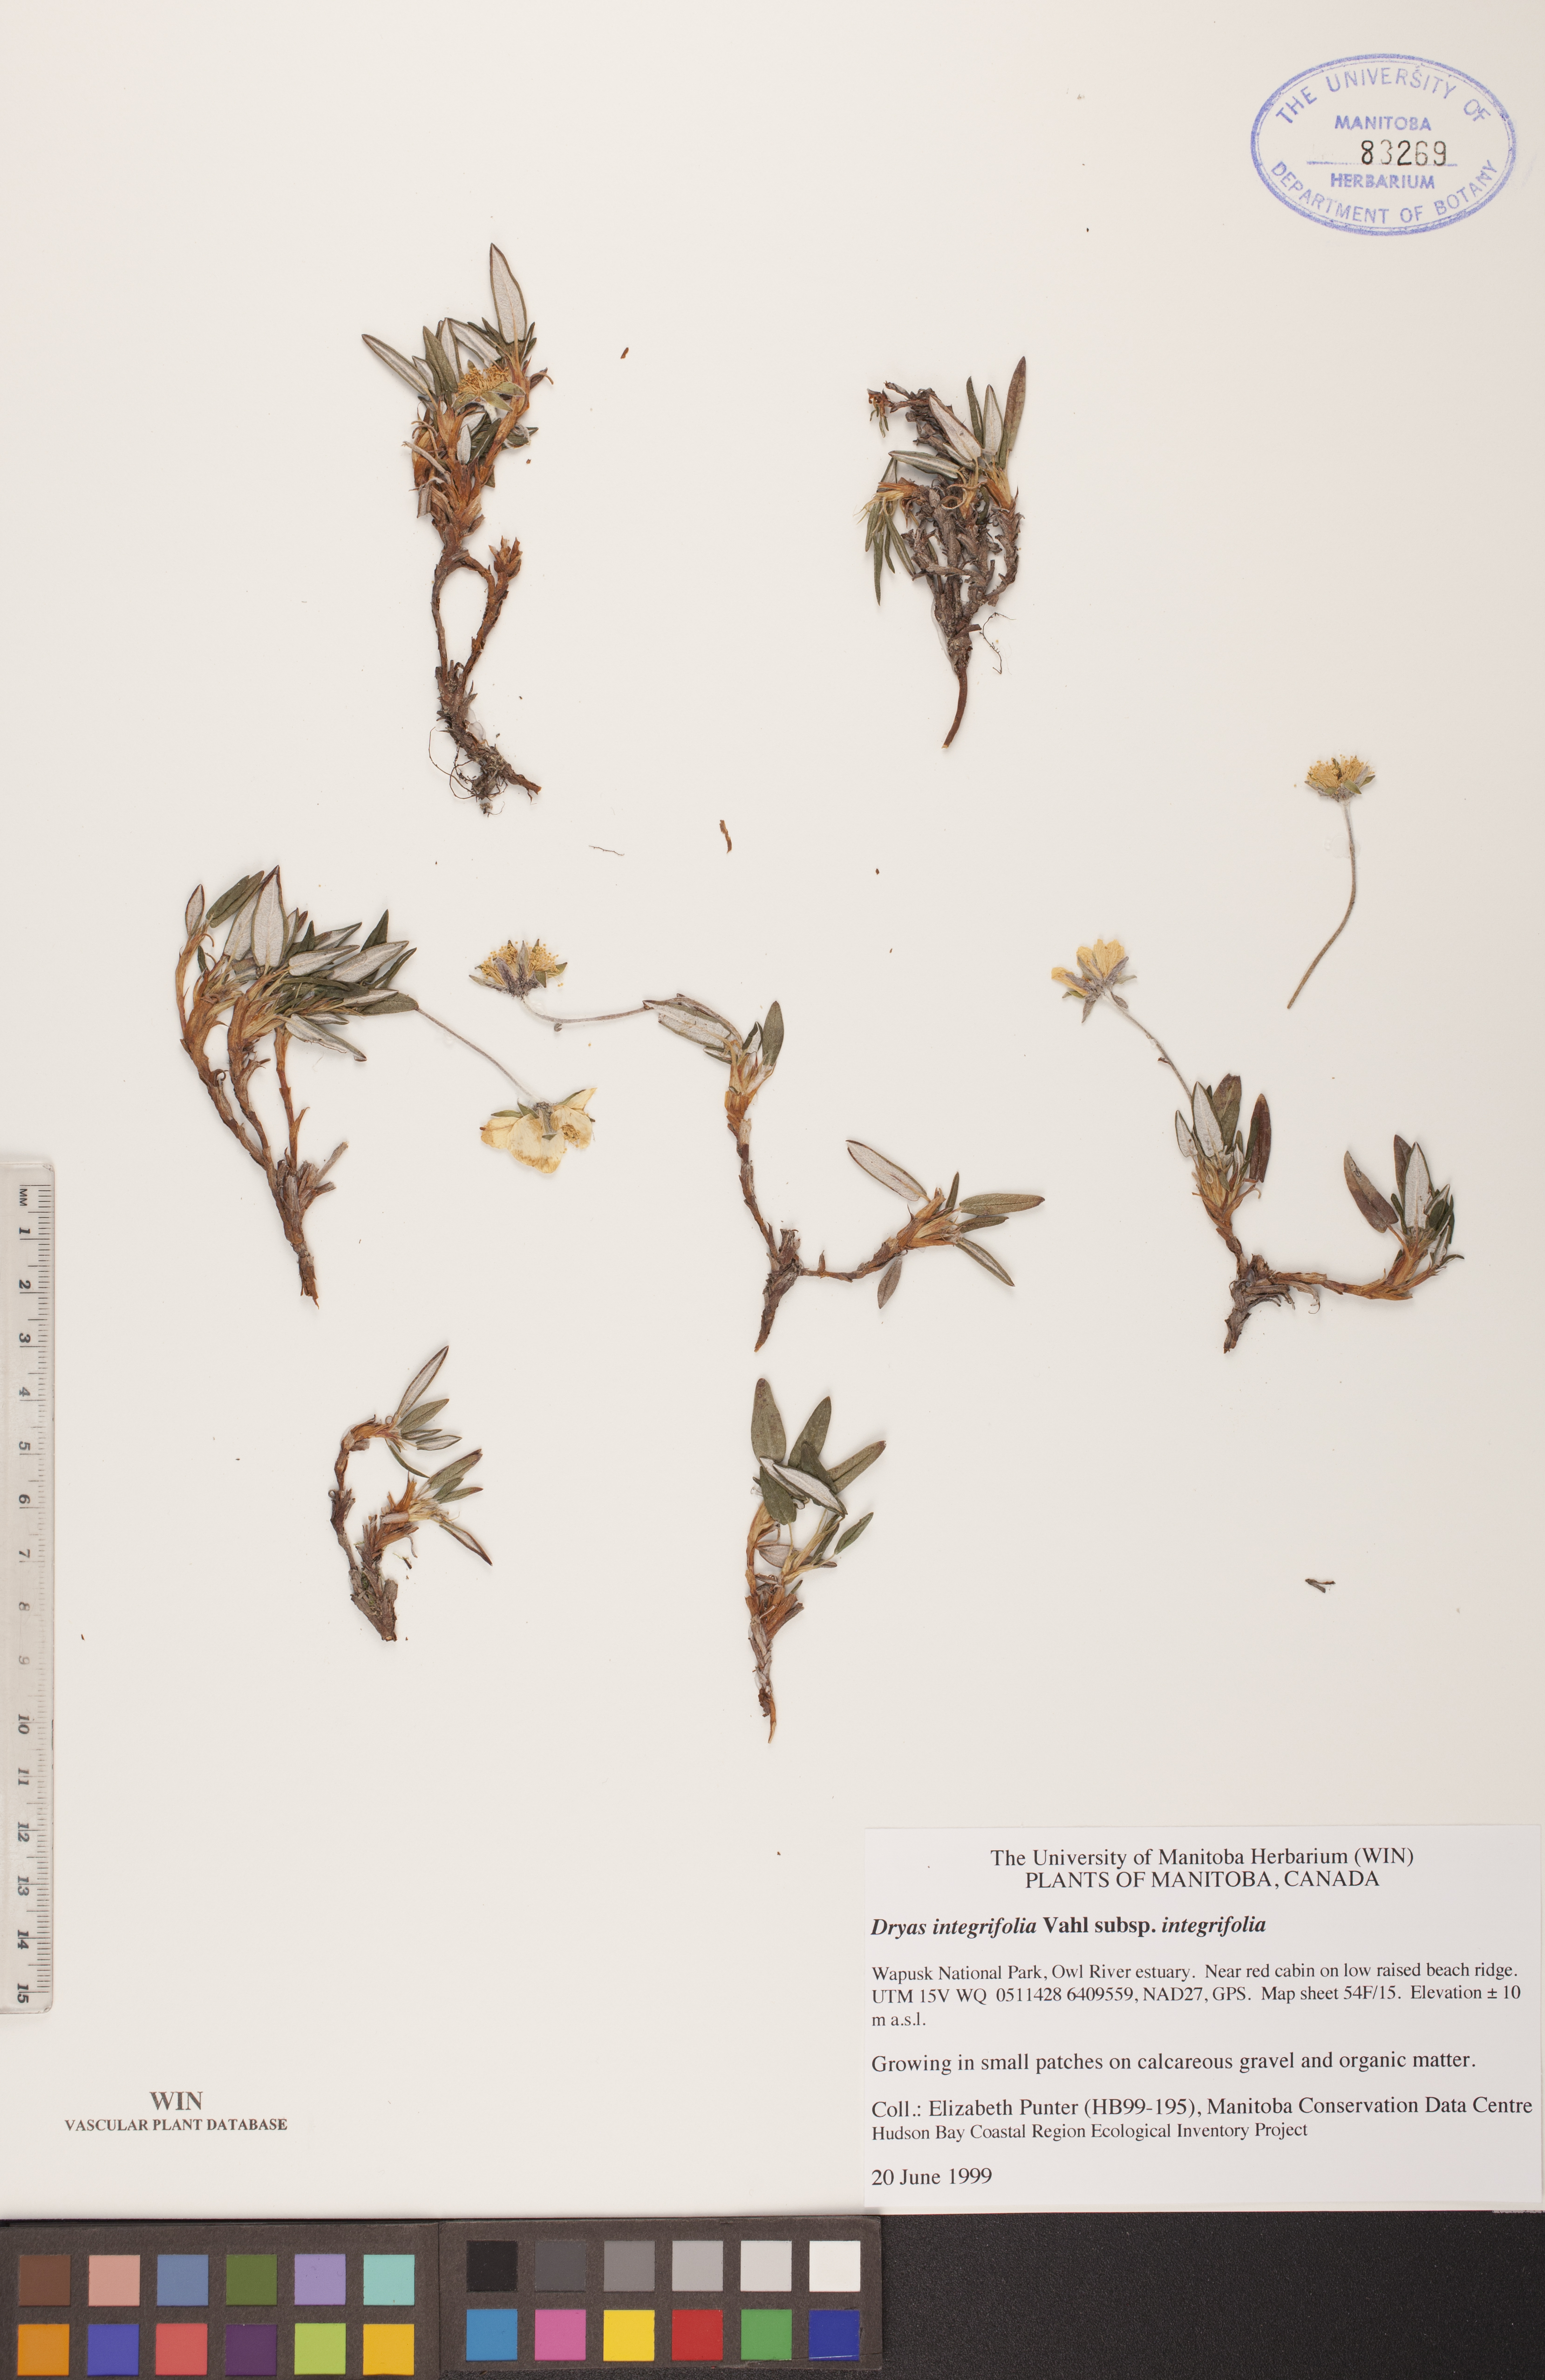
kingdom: Plantae
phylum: Tracheophyta
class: Magnoliopsida
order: Rosales
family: Rosaceae
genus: Dryas
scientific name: Dryas integrifolia
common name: Entire-leaved mountain avens
